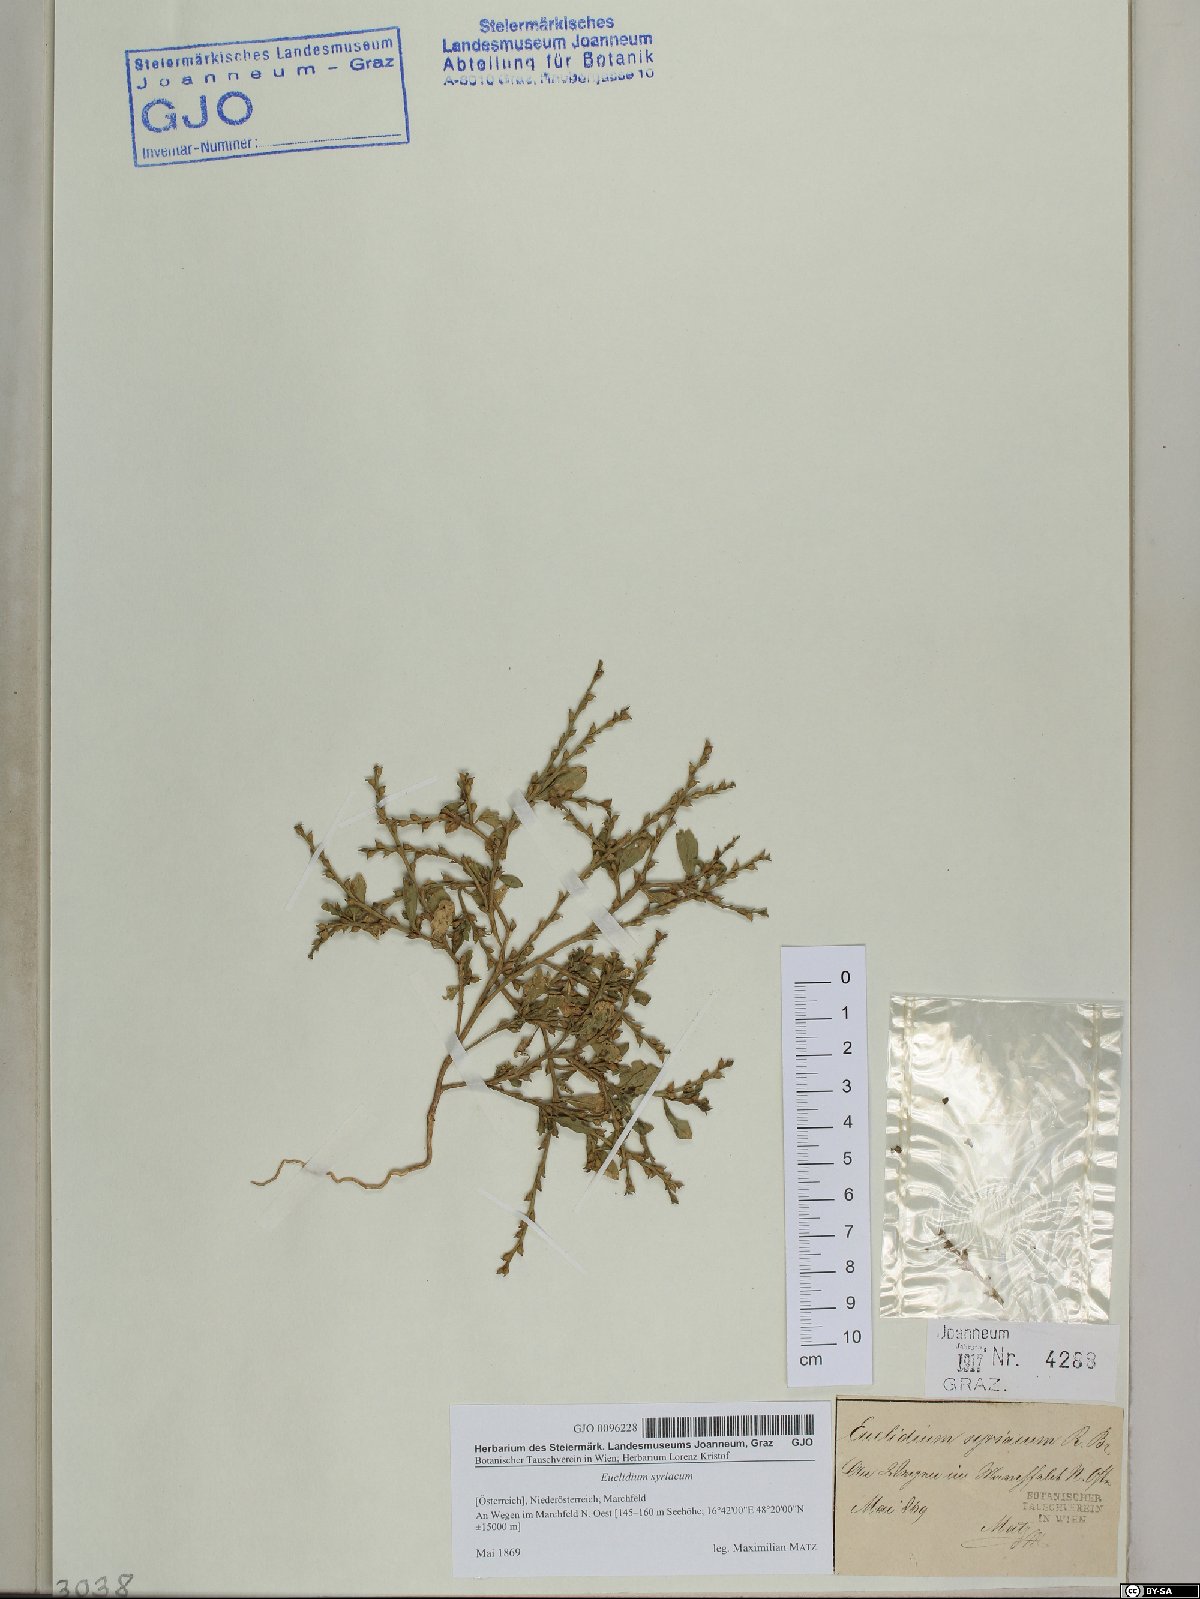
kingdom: Plantae
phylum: Tracheophyta
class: Magnoliopsida
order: Brassicales
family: Brassicaceae
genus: Euclidium
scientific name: Euclidium syriacum
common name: Syrian mustard
